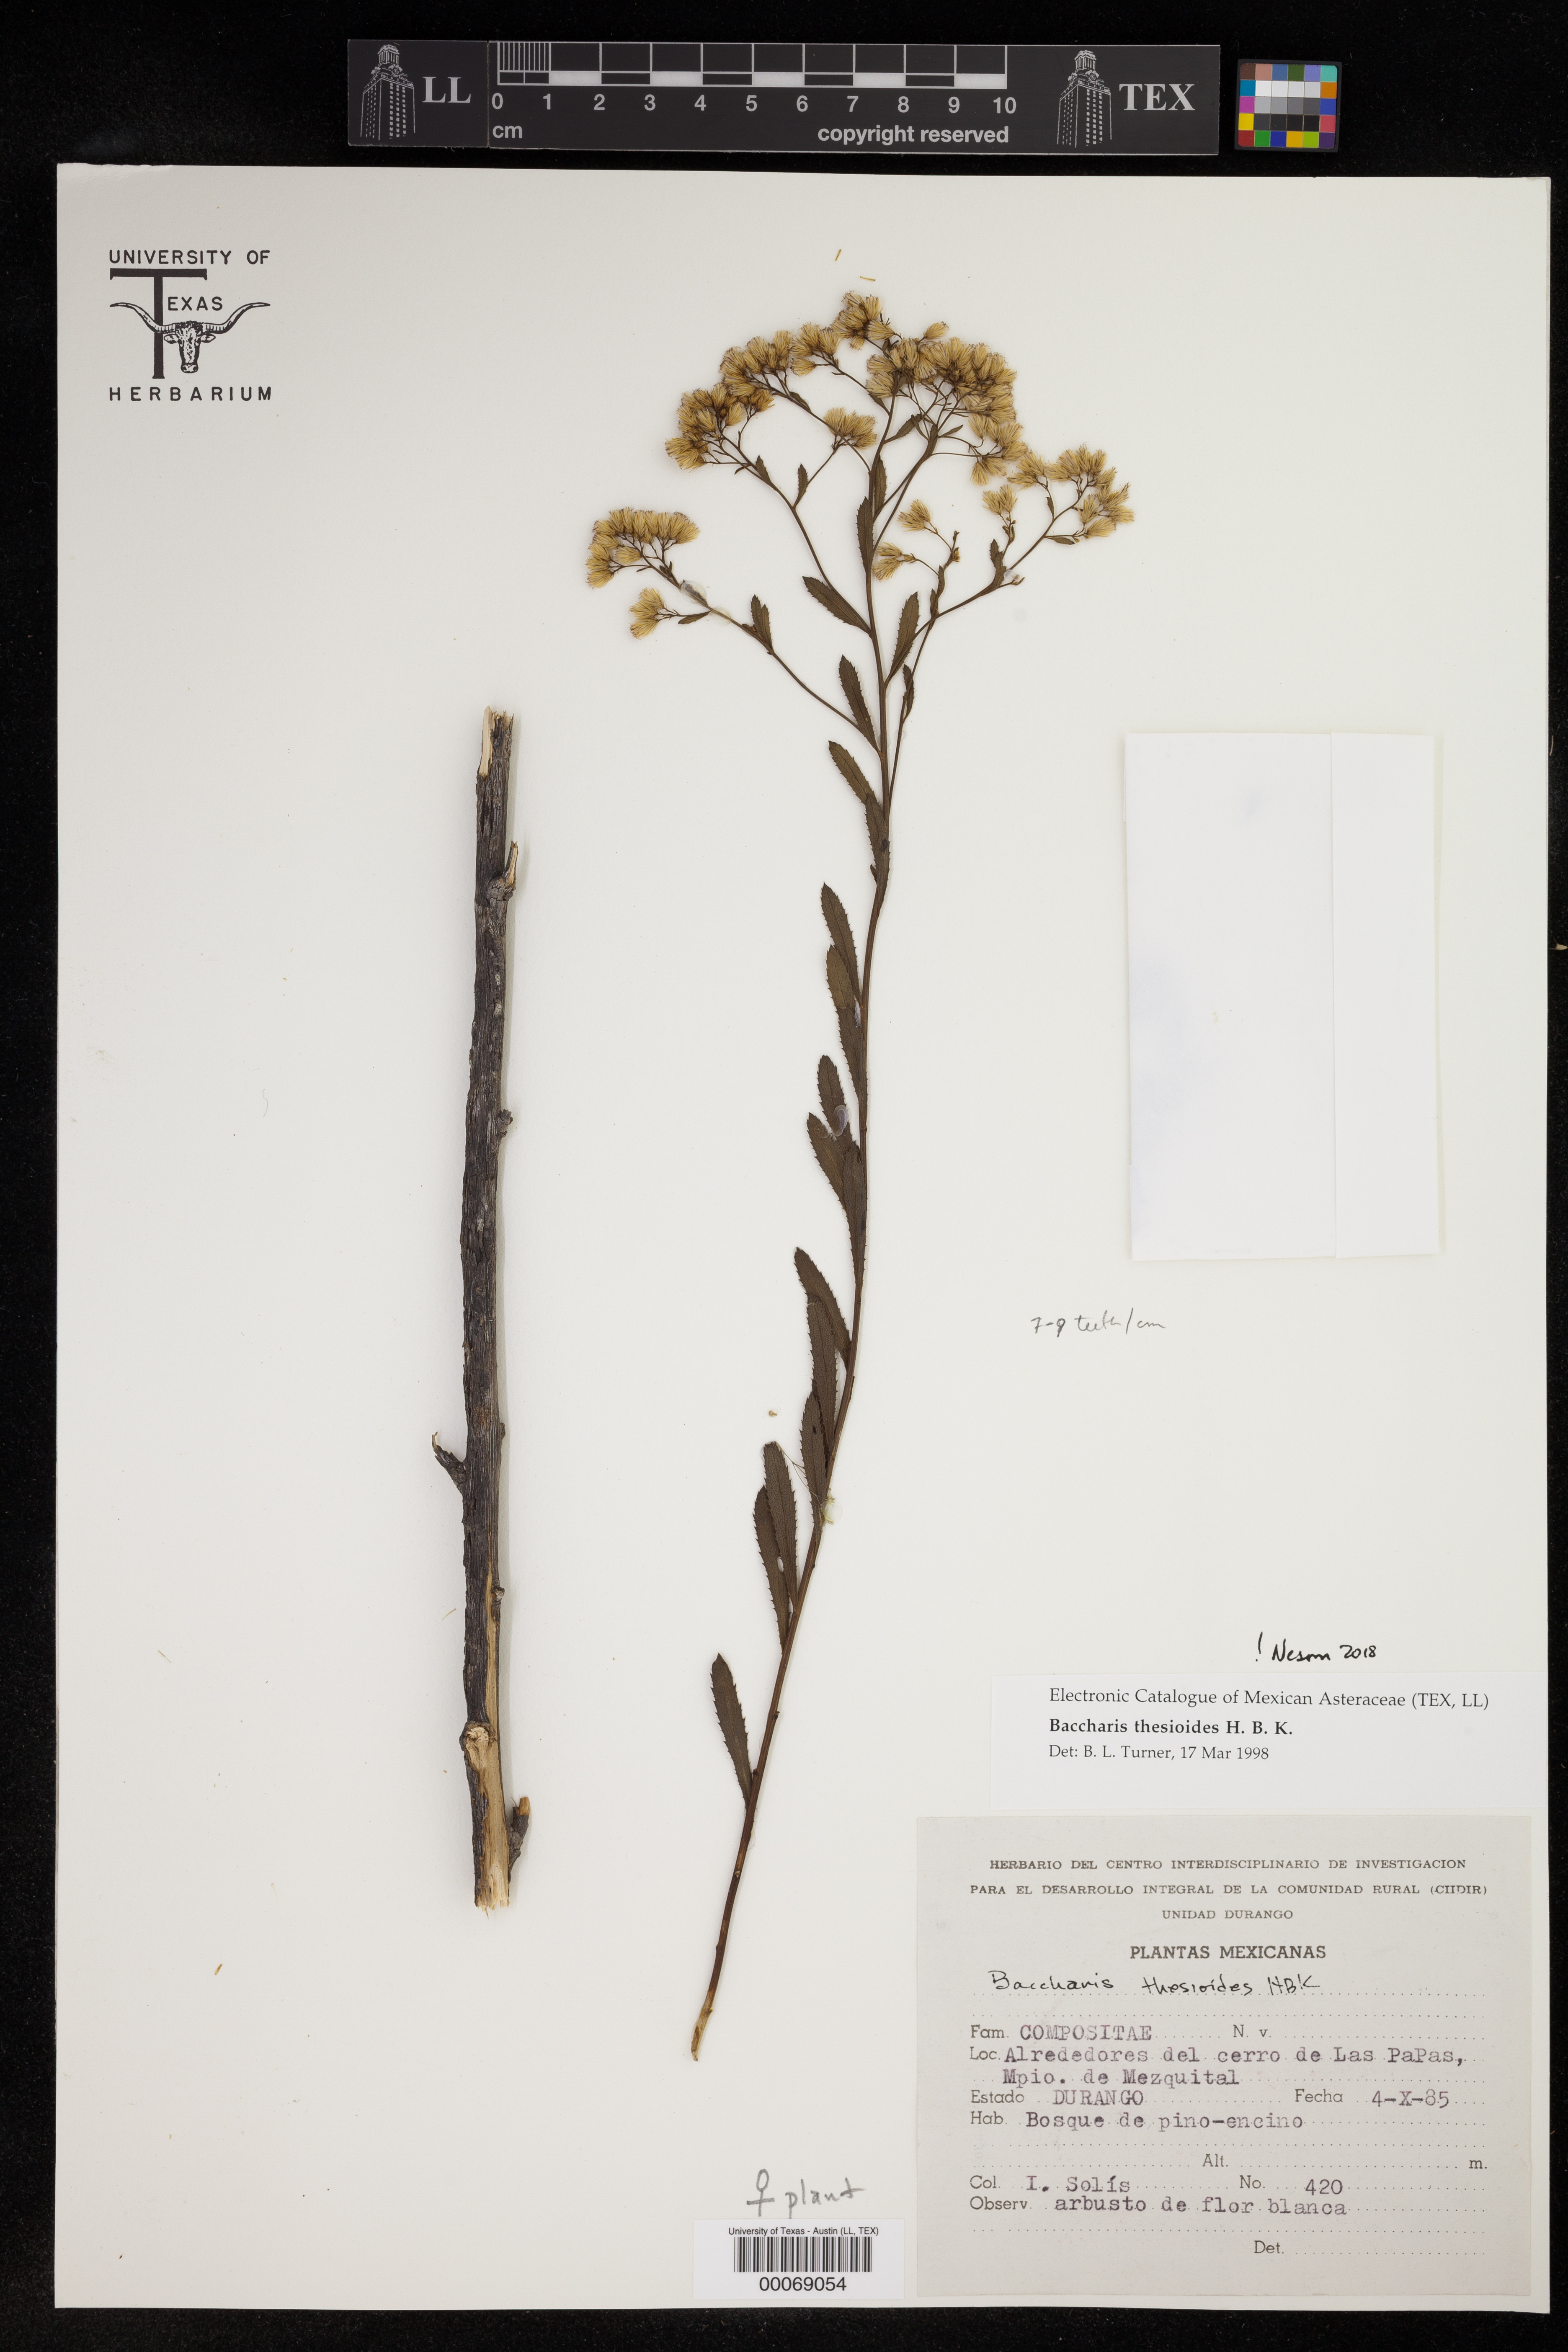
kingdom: Plantae
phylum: Tracheophyta
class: Magnoliopsida
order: Asterales
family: Asteraceae
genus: Baccharis
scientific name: Baccharis thesioides
